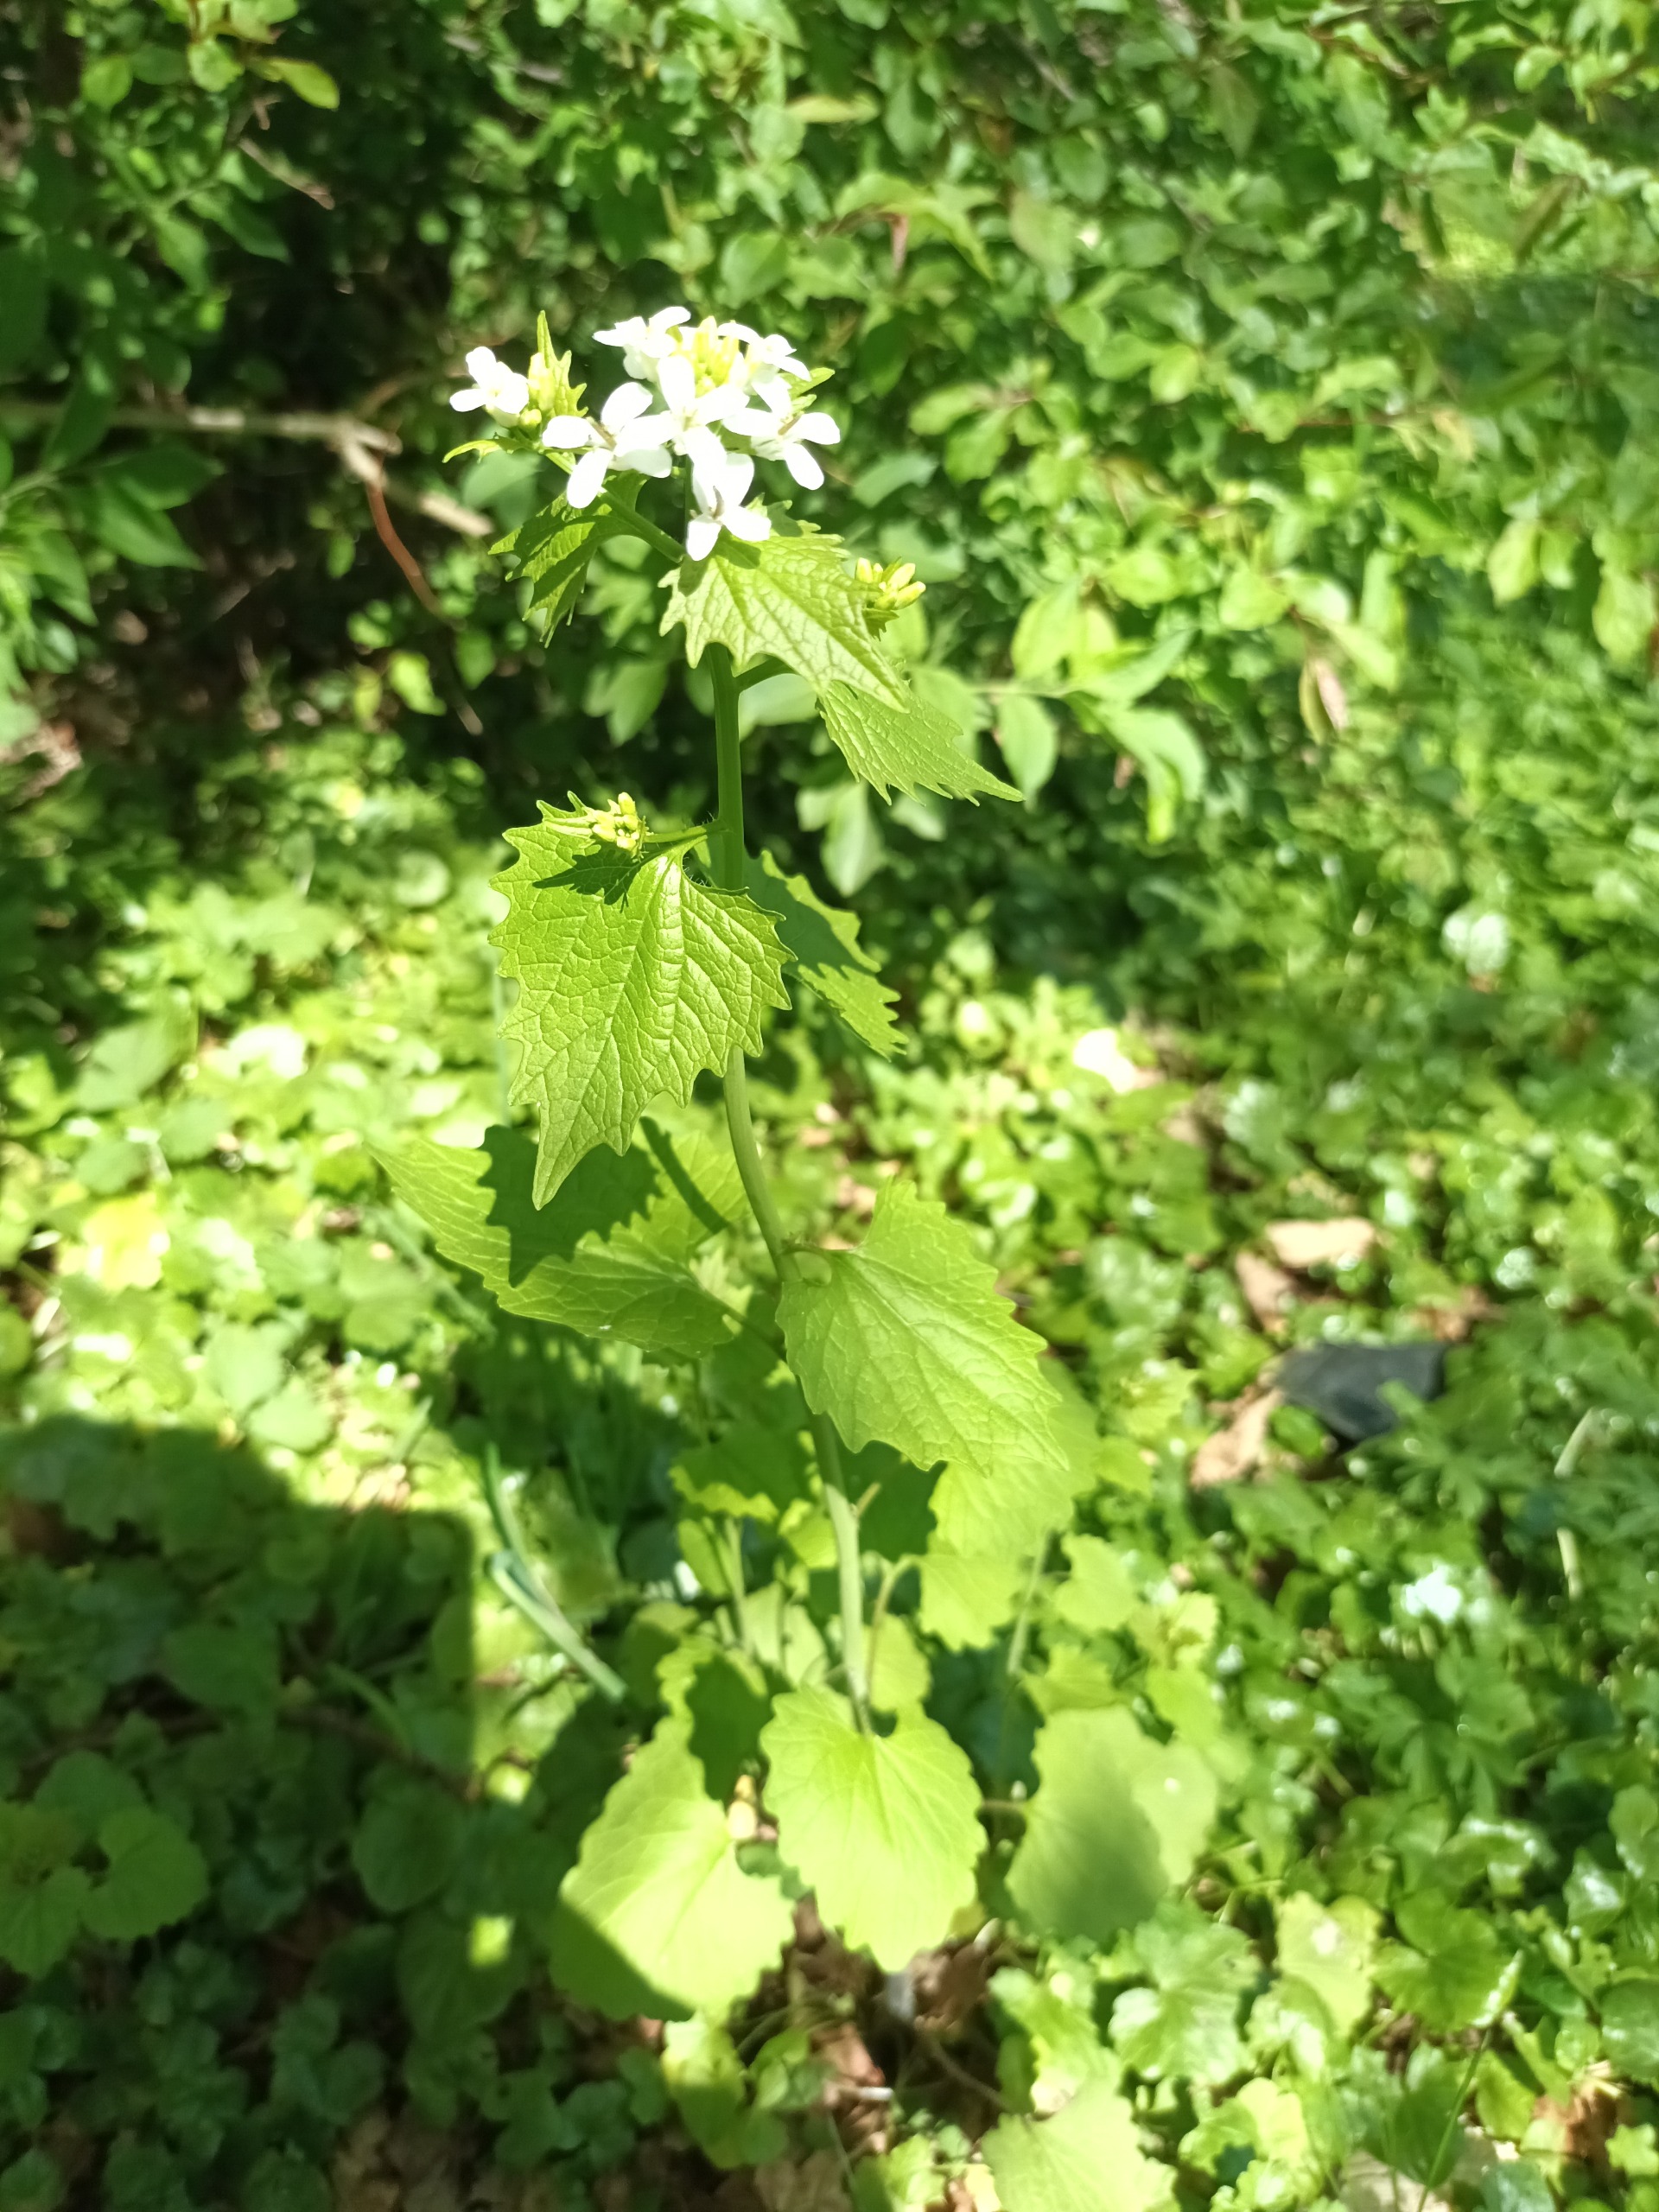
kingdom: Plantae
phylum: Tracheophyta
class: Magnoliopsida
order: Brassicales
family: Brassicaceae
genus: Alliaria
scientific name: Alliaria petiolata
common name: Løgkarse
